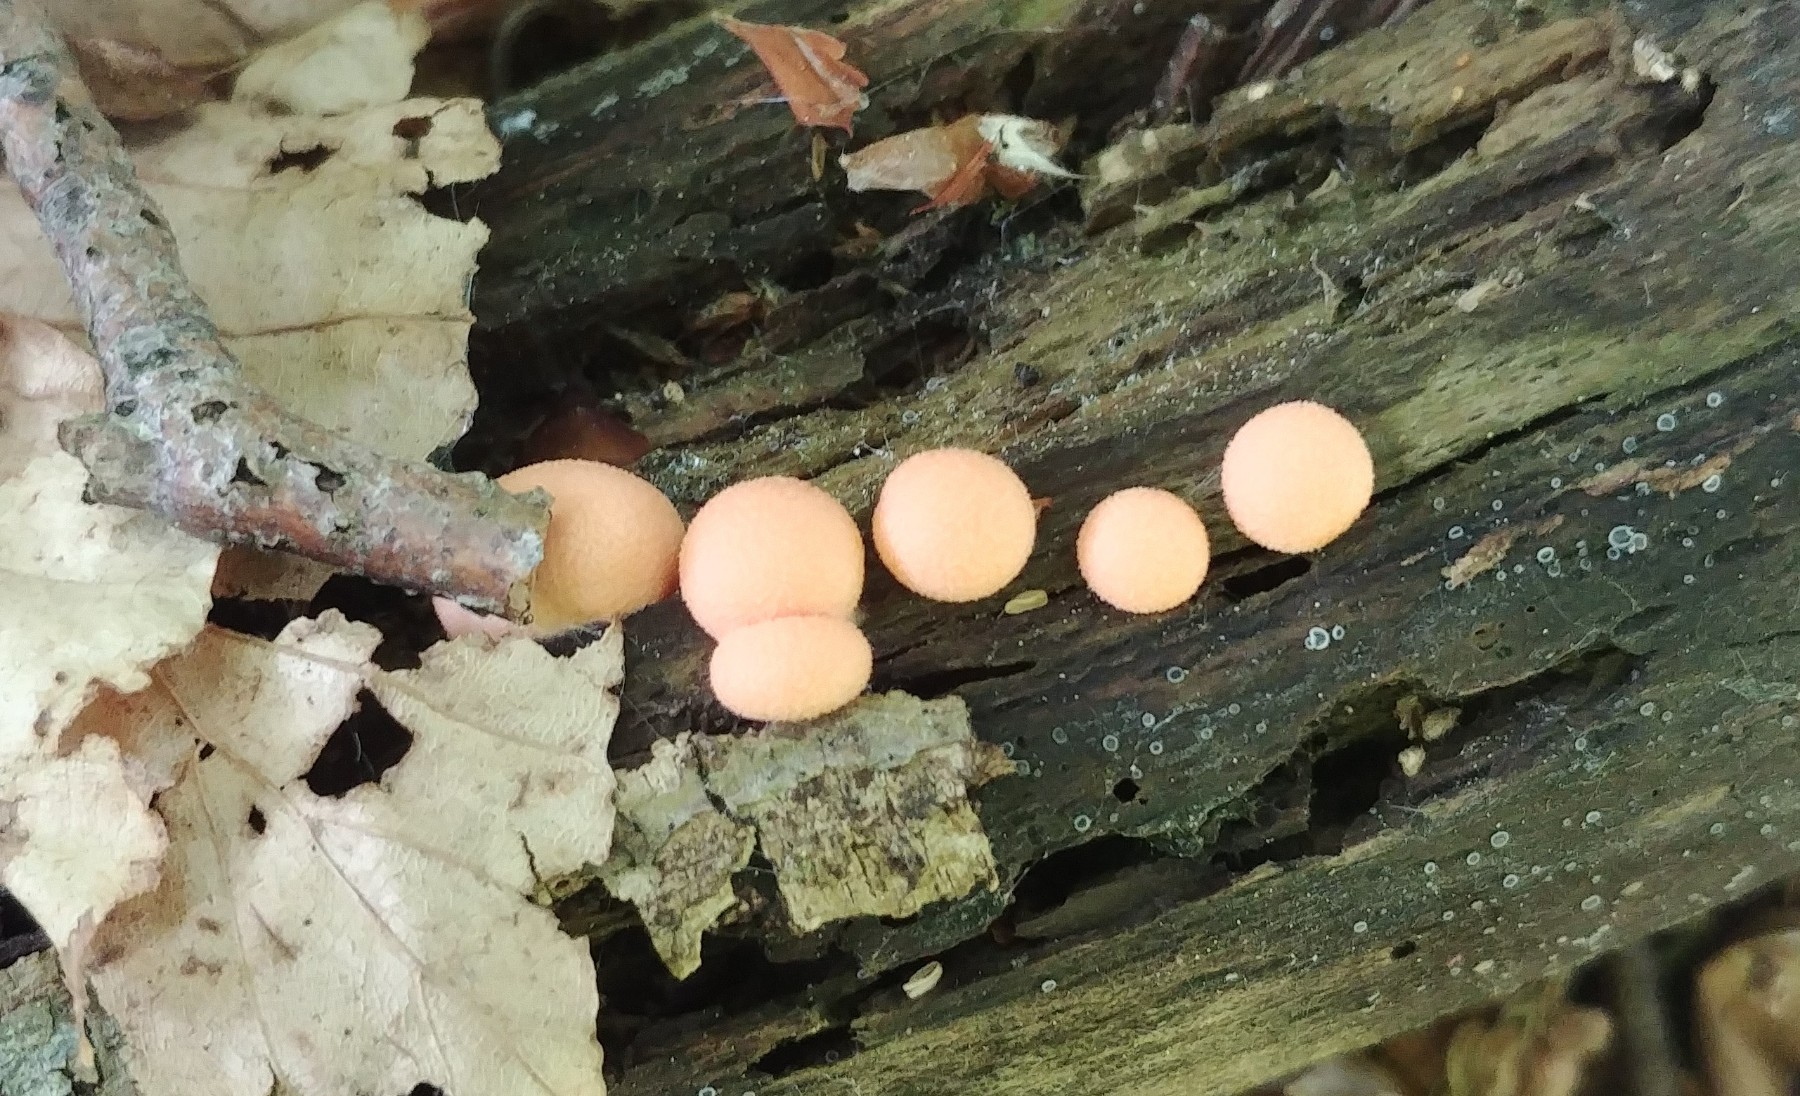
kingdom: Protozoa
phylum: Mycetozoa
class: Myxomycetes
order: Cribrariales
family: Tubiferaceae
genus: Lycogala
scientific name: Lycogala epidendrum
